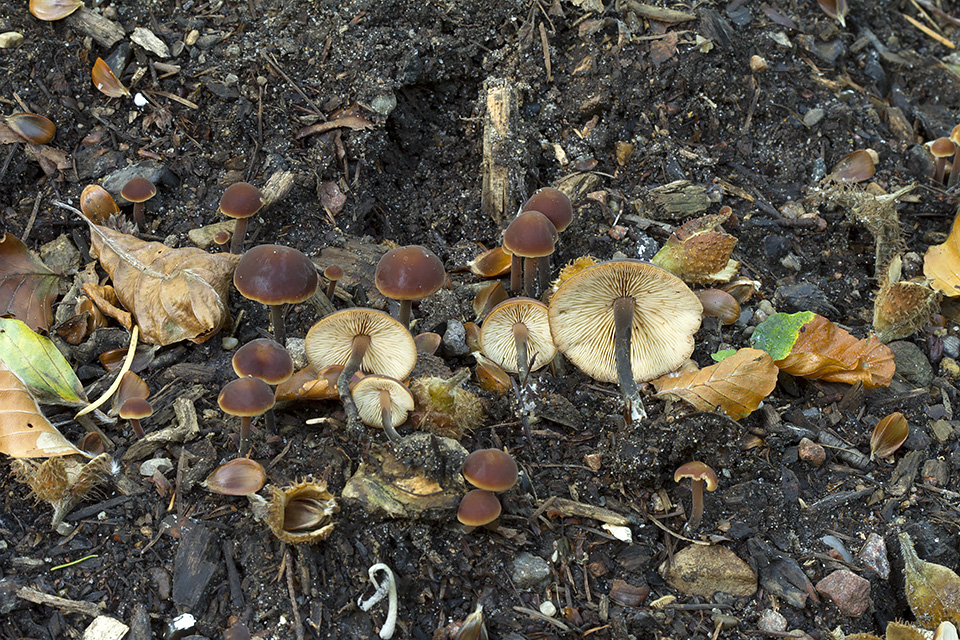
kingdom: Fungi
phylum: Basidiomycota
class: Agaricomycetes
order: Agaricales
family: Macrocystidiaceae
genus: Macrocystidia
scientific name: Macrocystidia cucumis
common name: agurkehat
